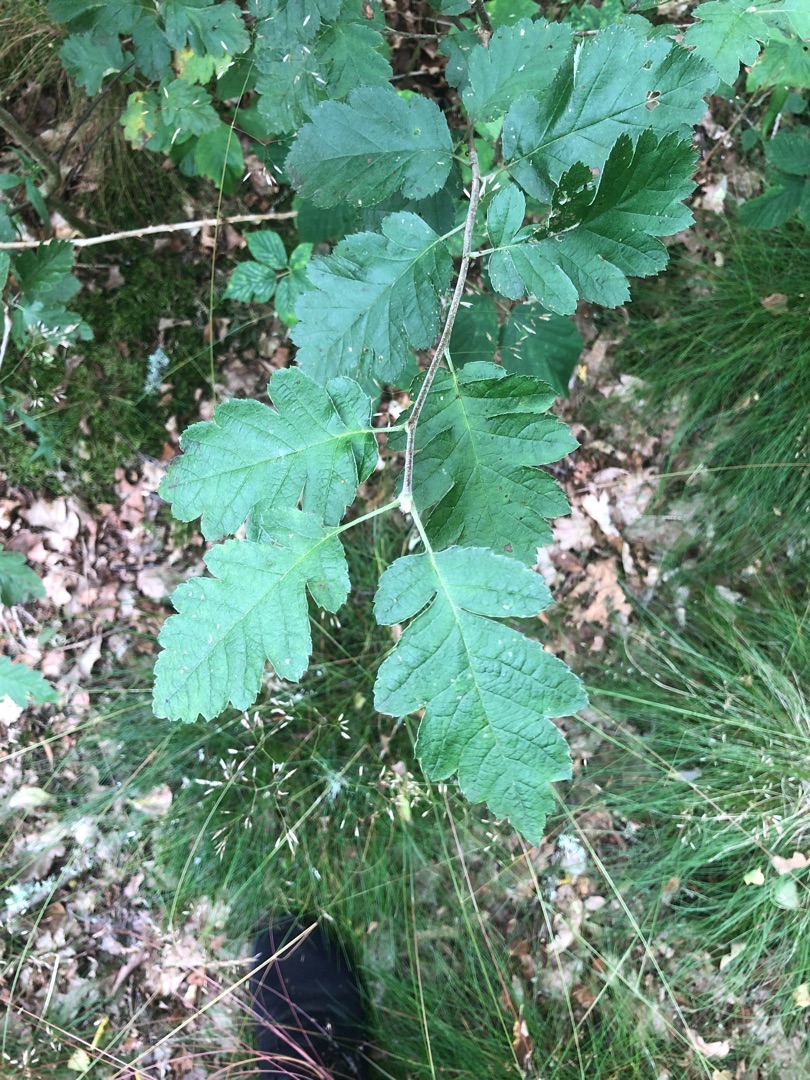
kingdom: Plantae
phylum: Tracheophyta
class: Magnoliopsida
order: Rosales
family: Rosaceae
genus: Scandosorbus
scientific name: Scandosorbus intermedia
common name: Selje-røn
